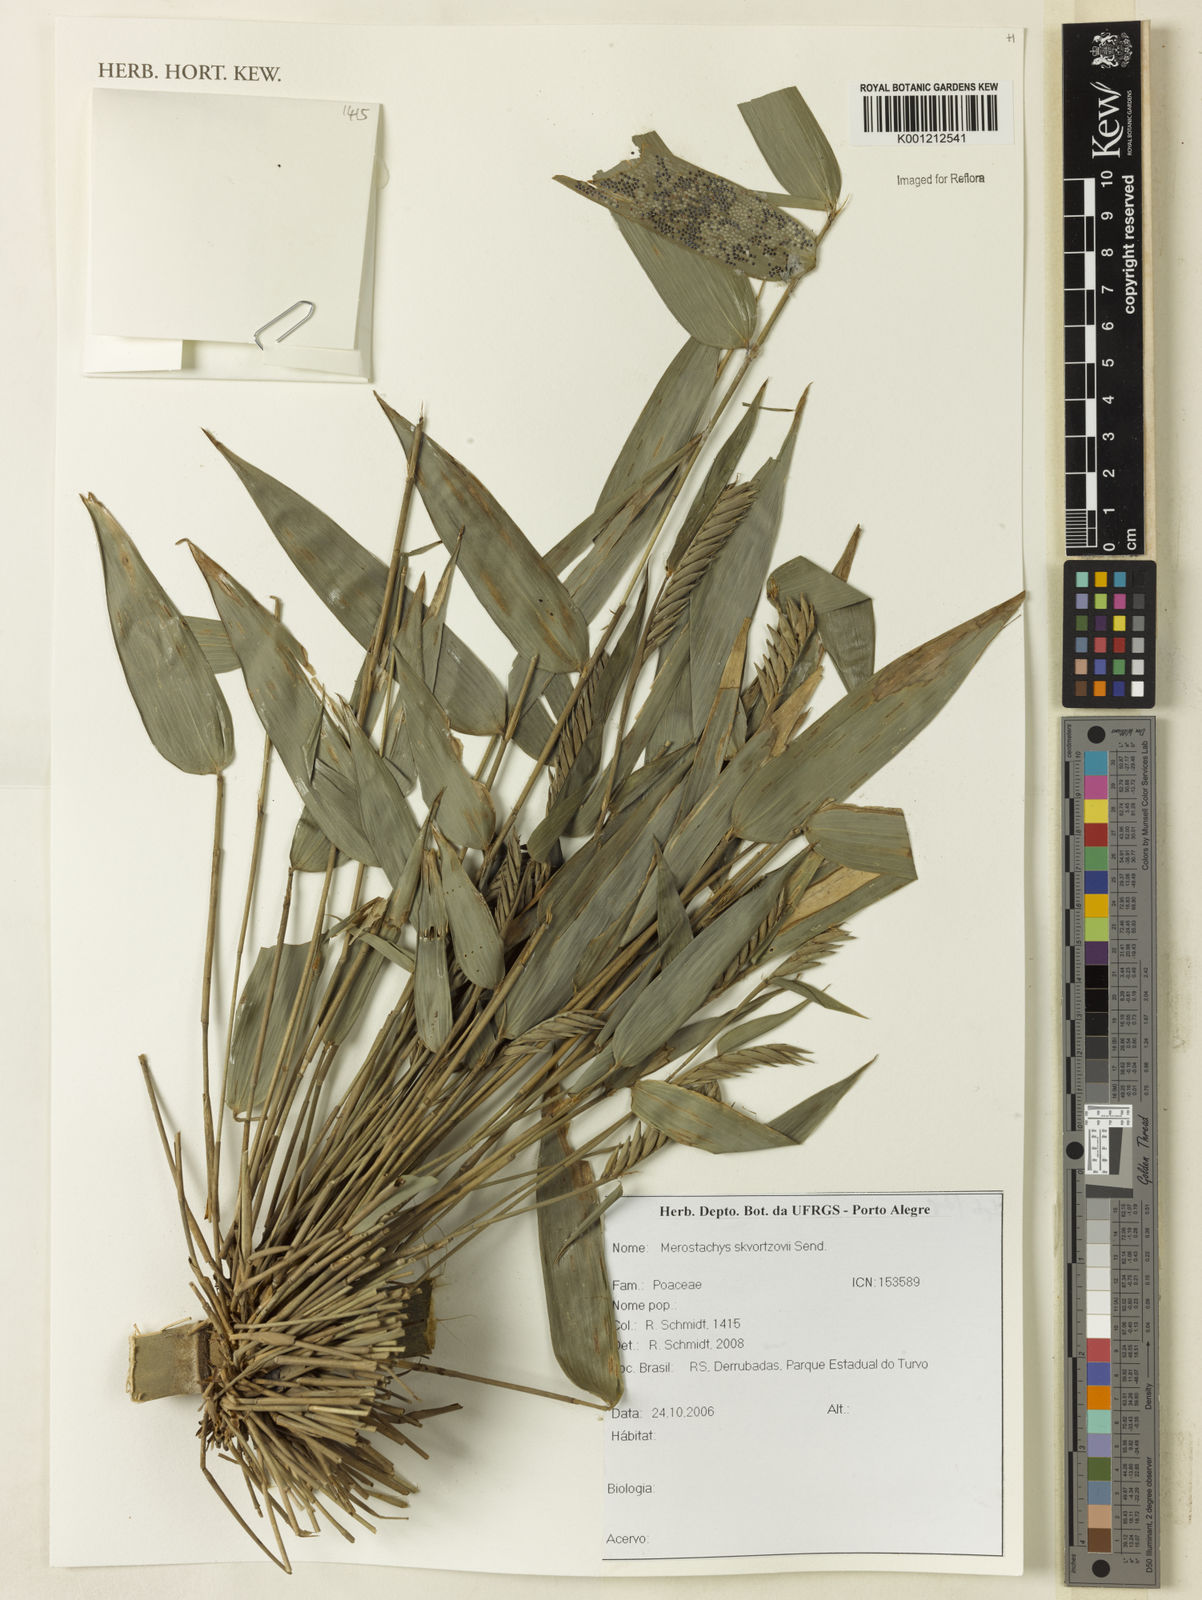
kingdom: Plantae
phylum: Tracheophyta
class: Liliopsida
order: Poales
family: Poaceae
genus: Merostachys
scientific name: Merostachys skvortzovii
